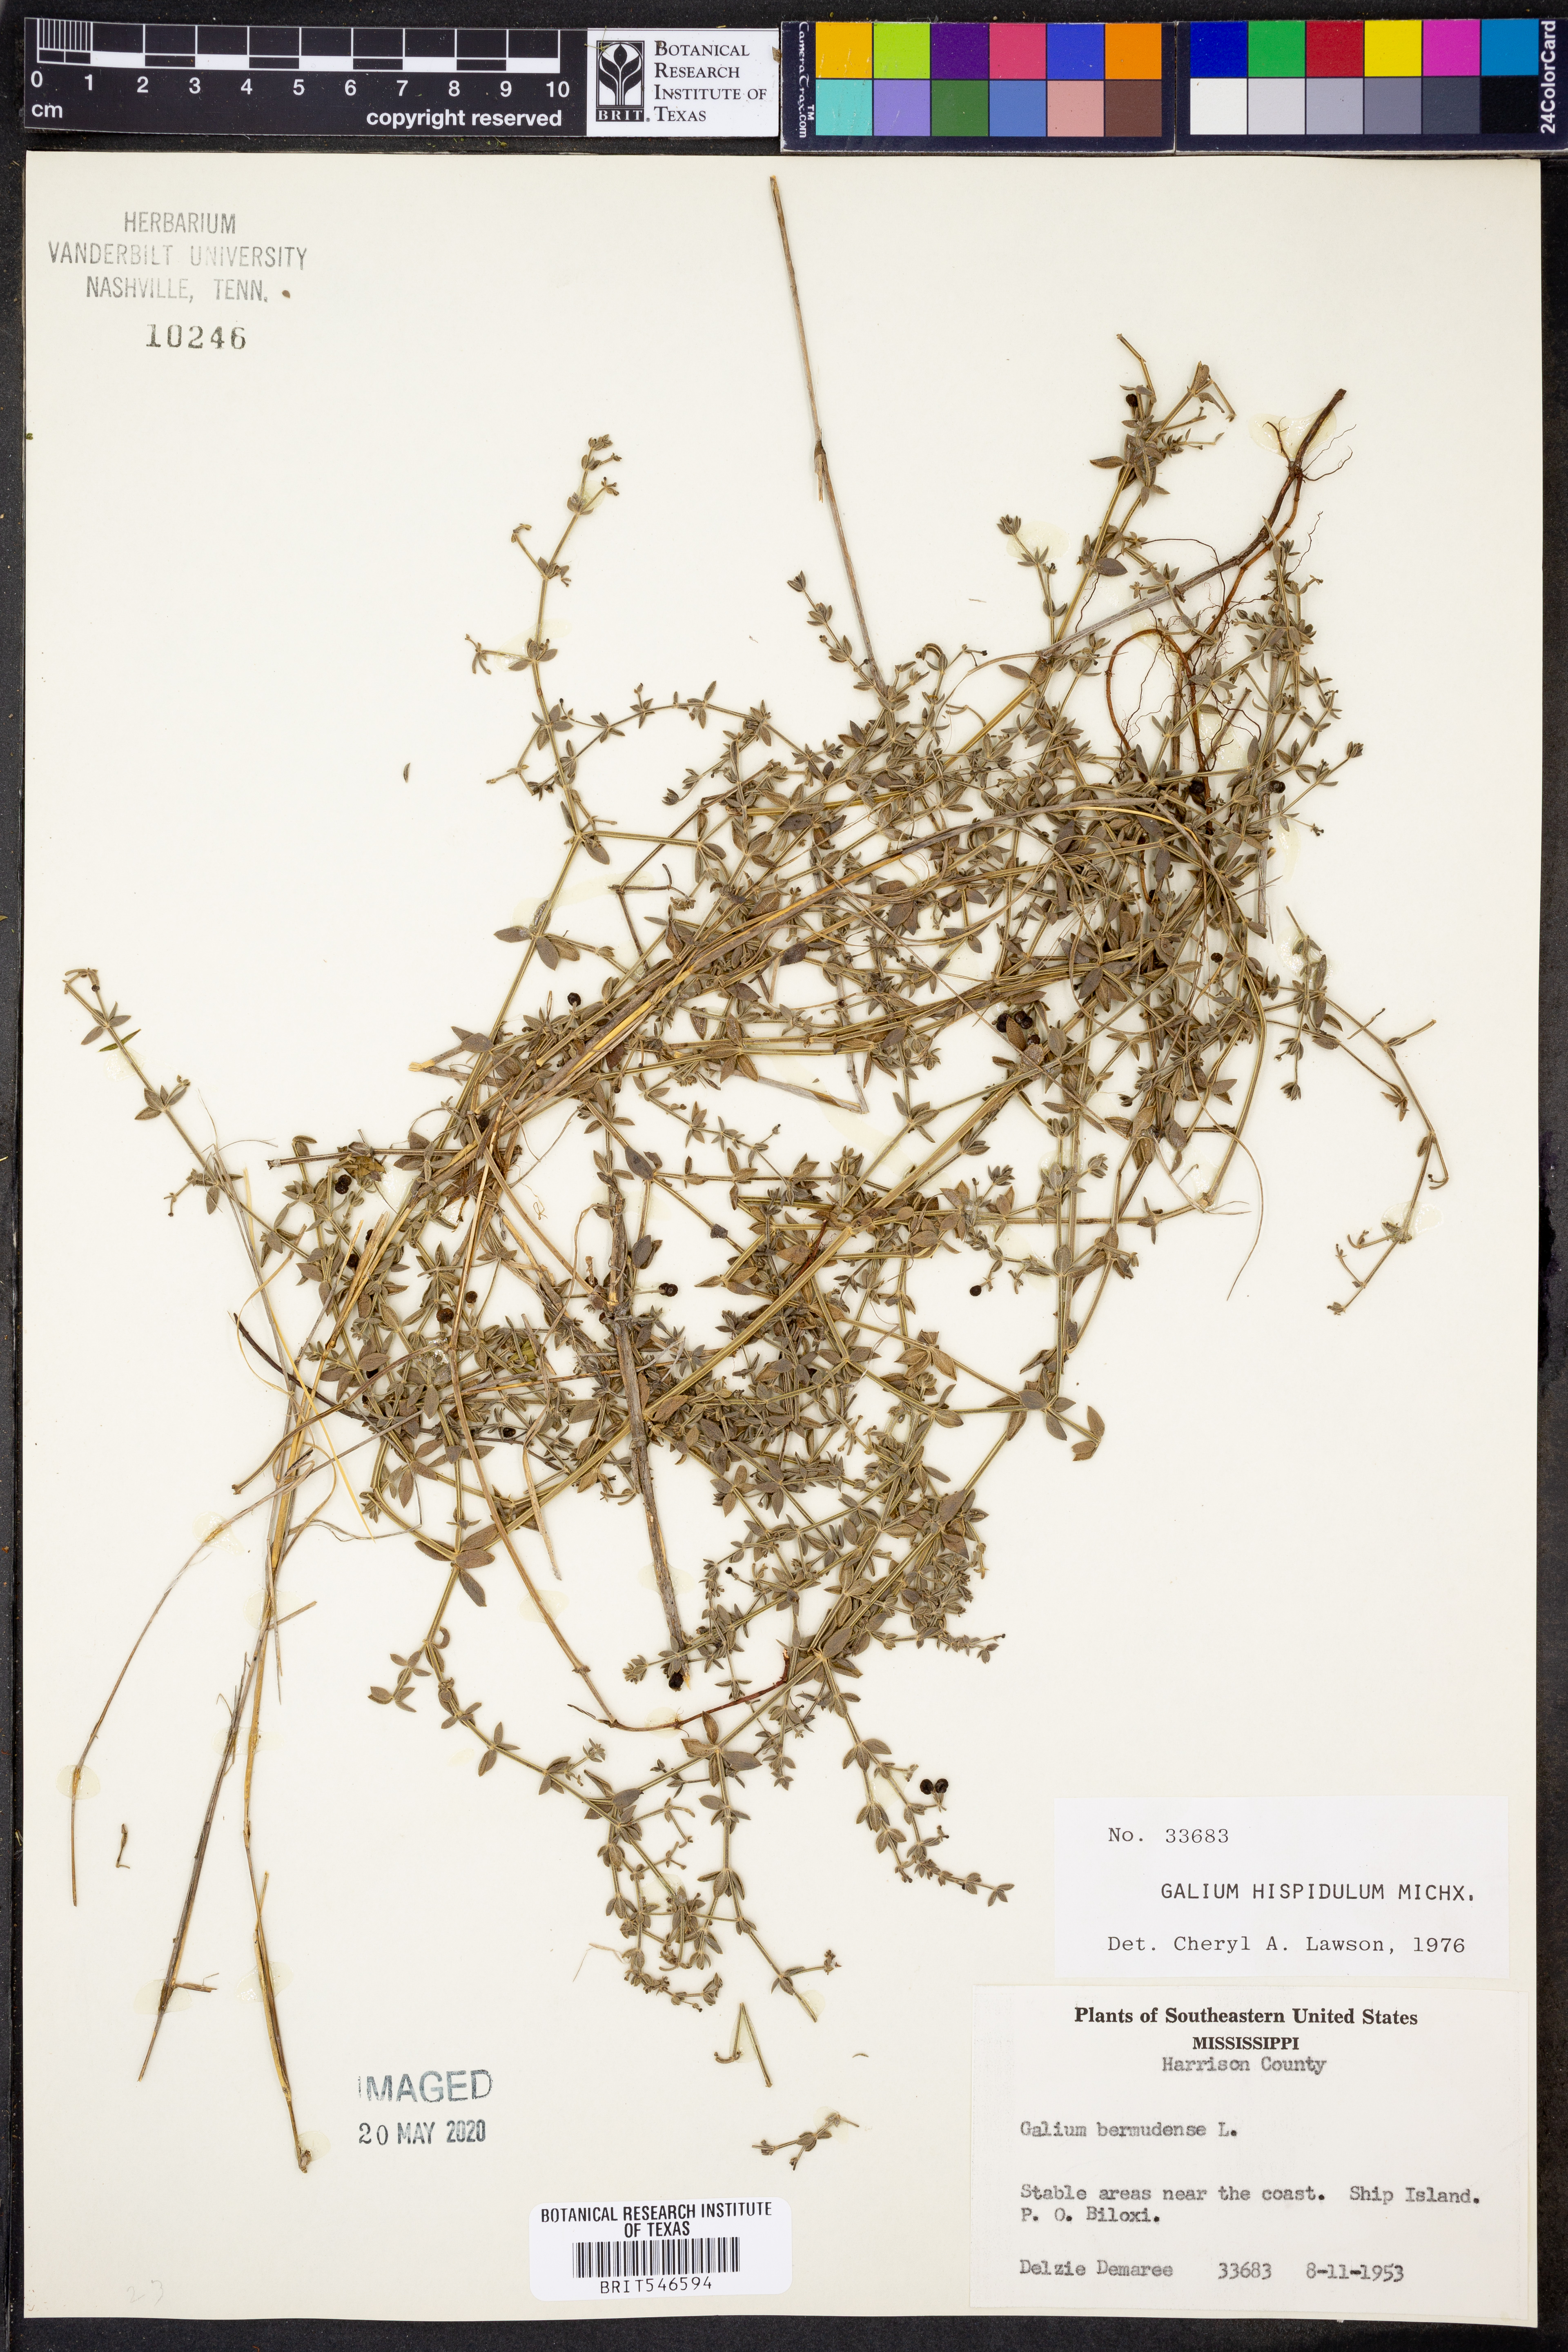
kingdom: Plantae
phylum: Tracheophyta
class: Magnoliopsida
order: Gentianales
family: Rubiaceae
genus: Galium
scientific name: Galium bermudense
